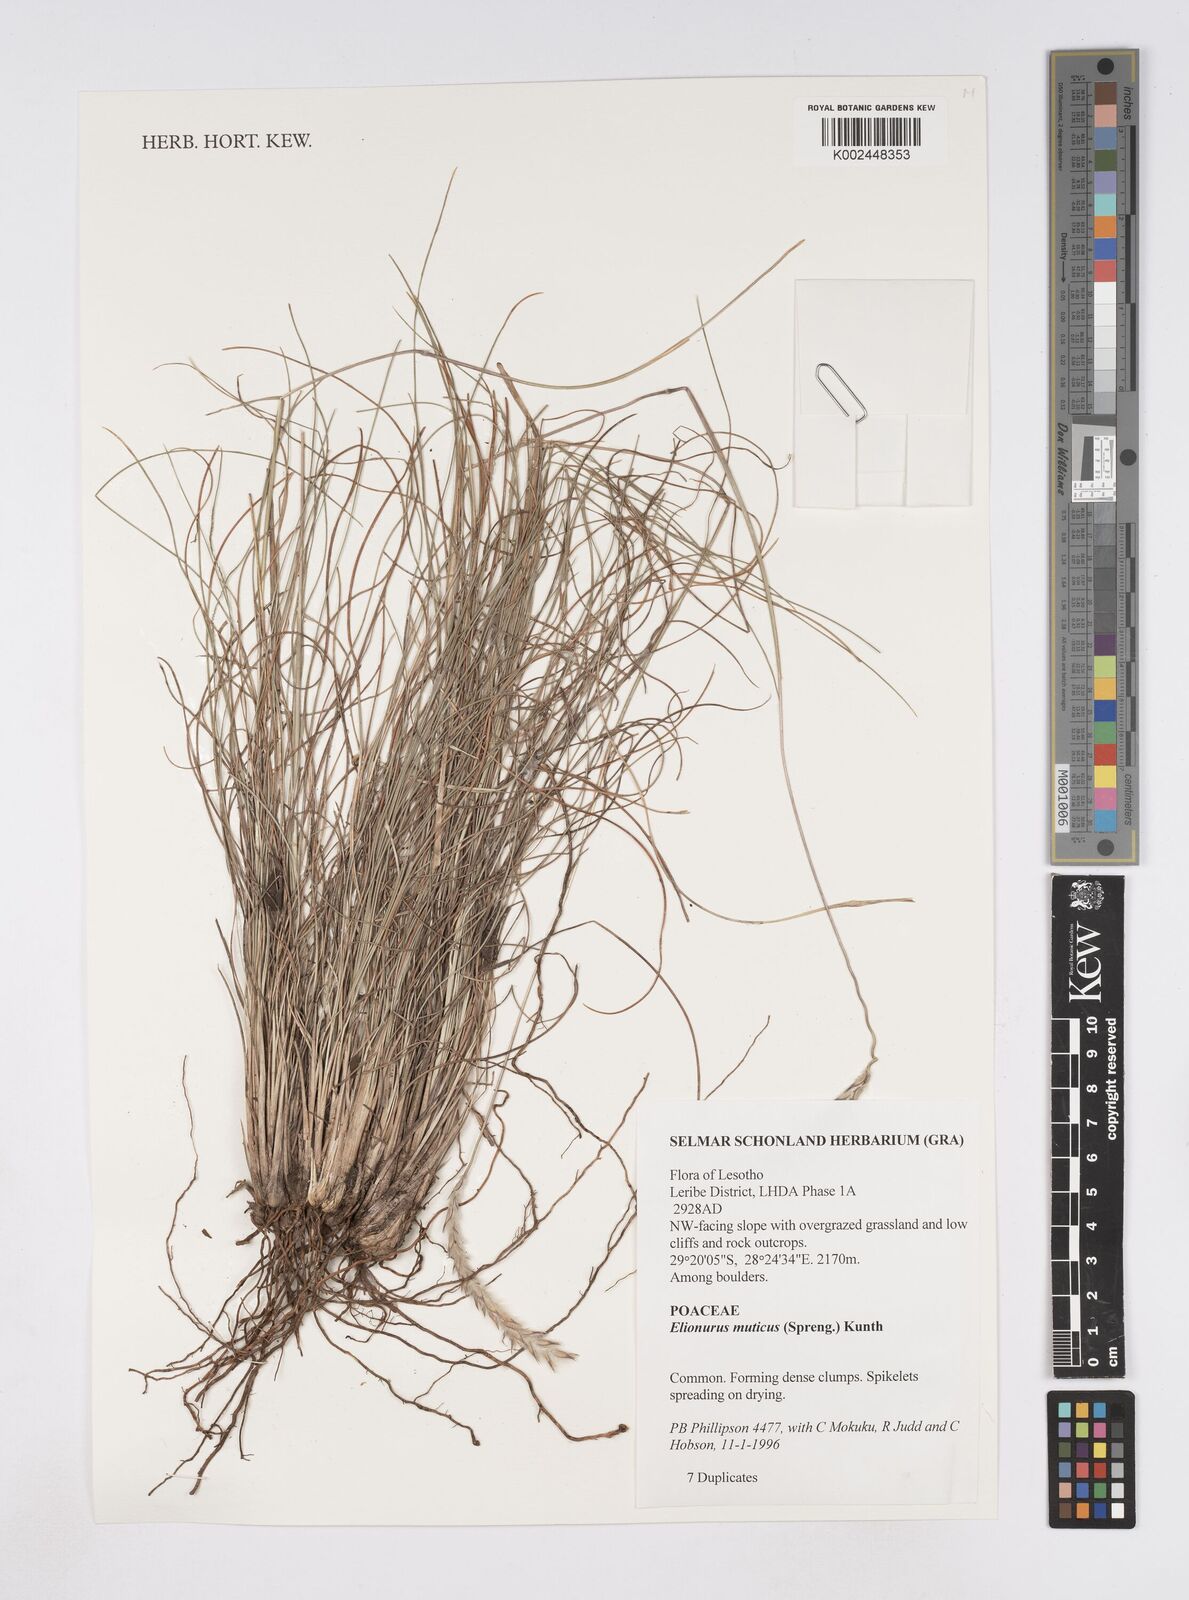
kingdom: Plantae
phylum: Tracheophyta
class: Liliopsida
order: Poales
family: Poaceae
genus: Elionurus
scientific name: Elionurus muticus
